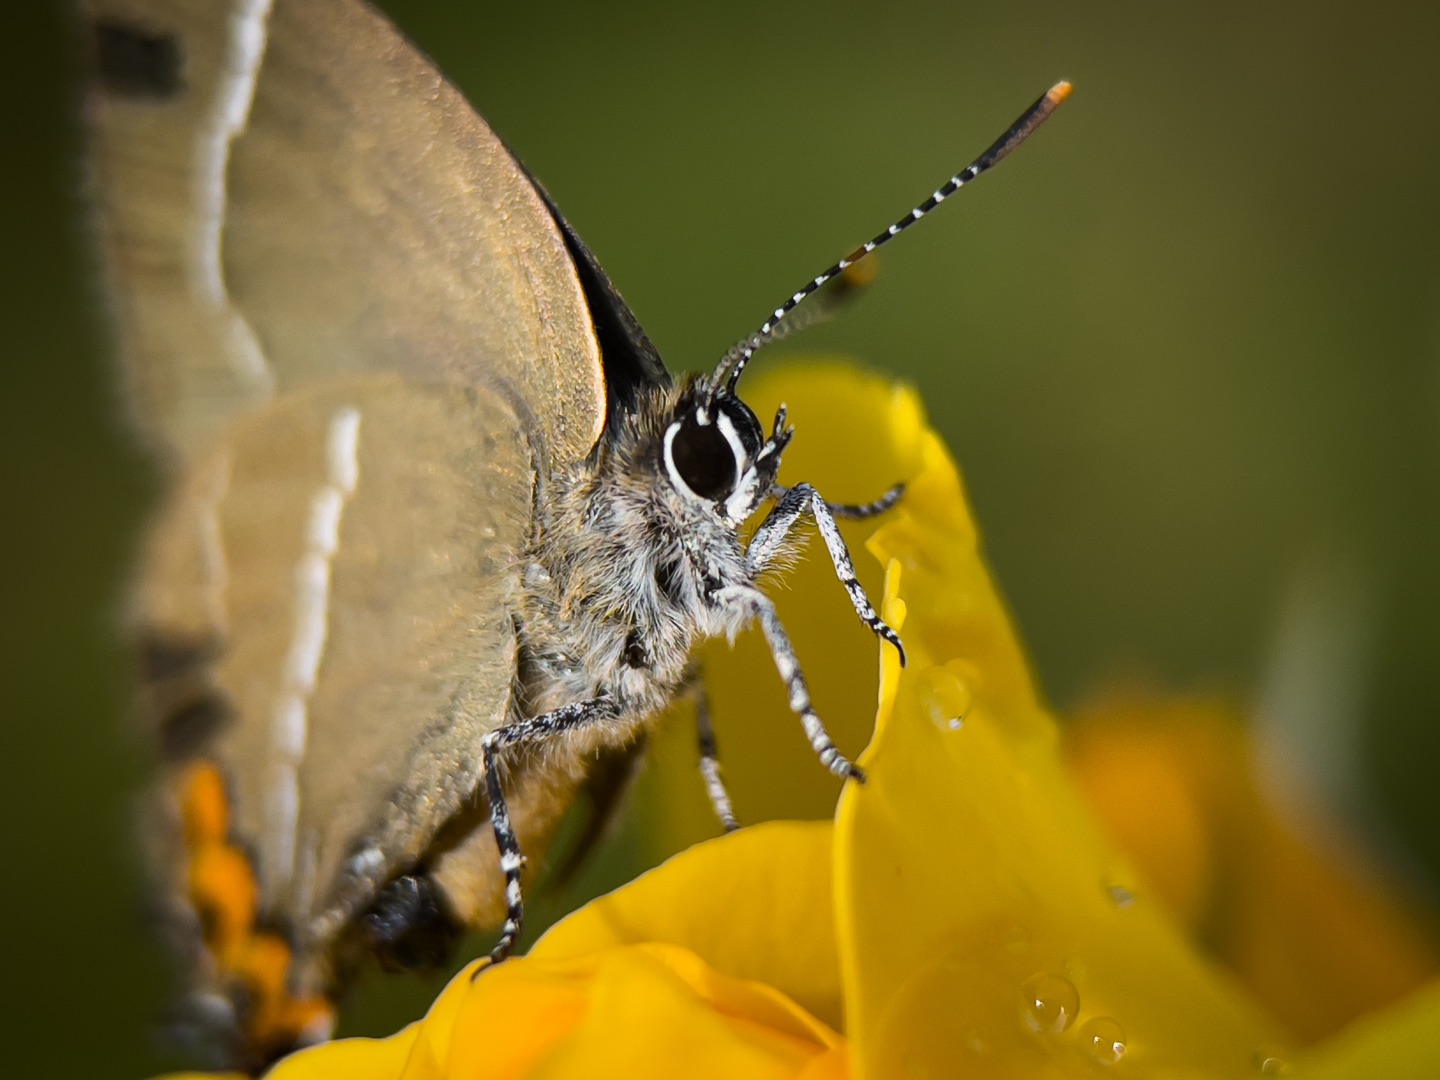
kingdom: Animalia
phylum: Arthropoda
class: Insecta
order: Lepidoptera
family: Lycaenidae
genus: Satyrium
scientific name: Satyrium w-album
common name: Det hvide W
